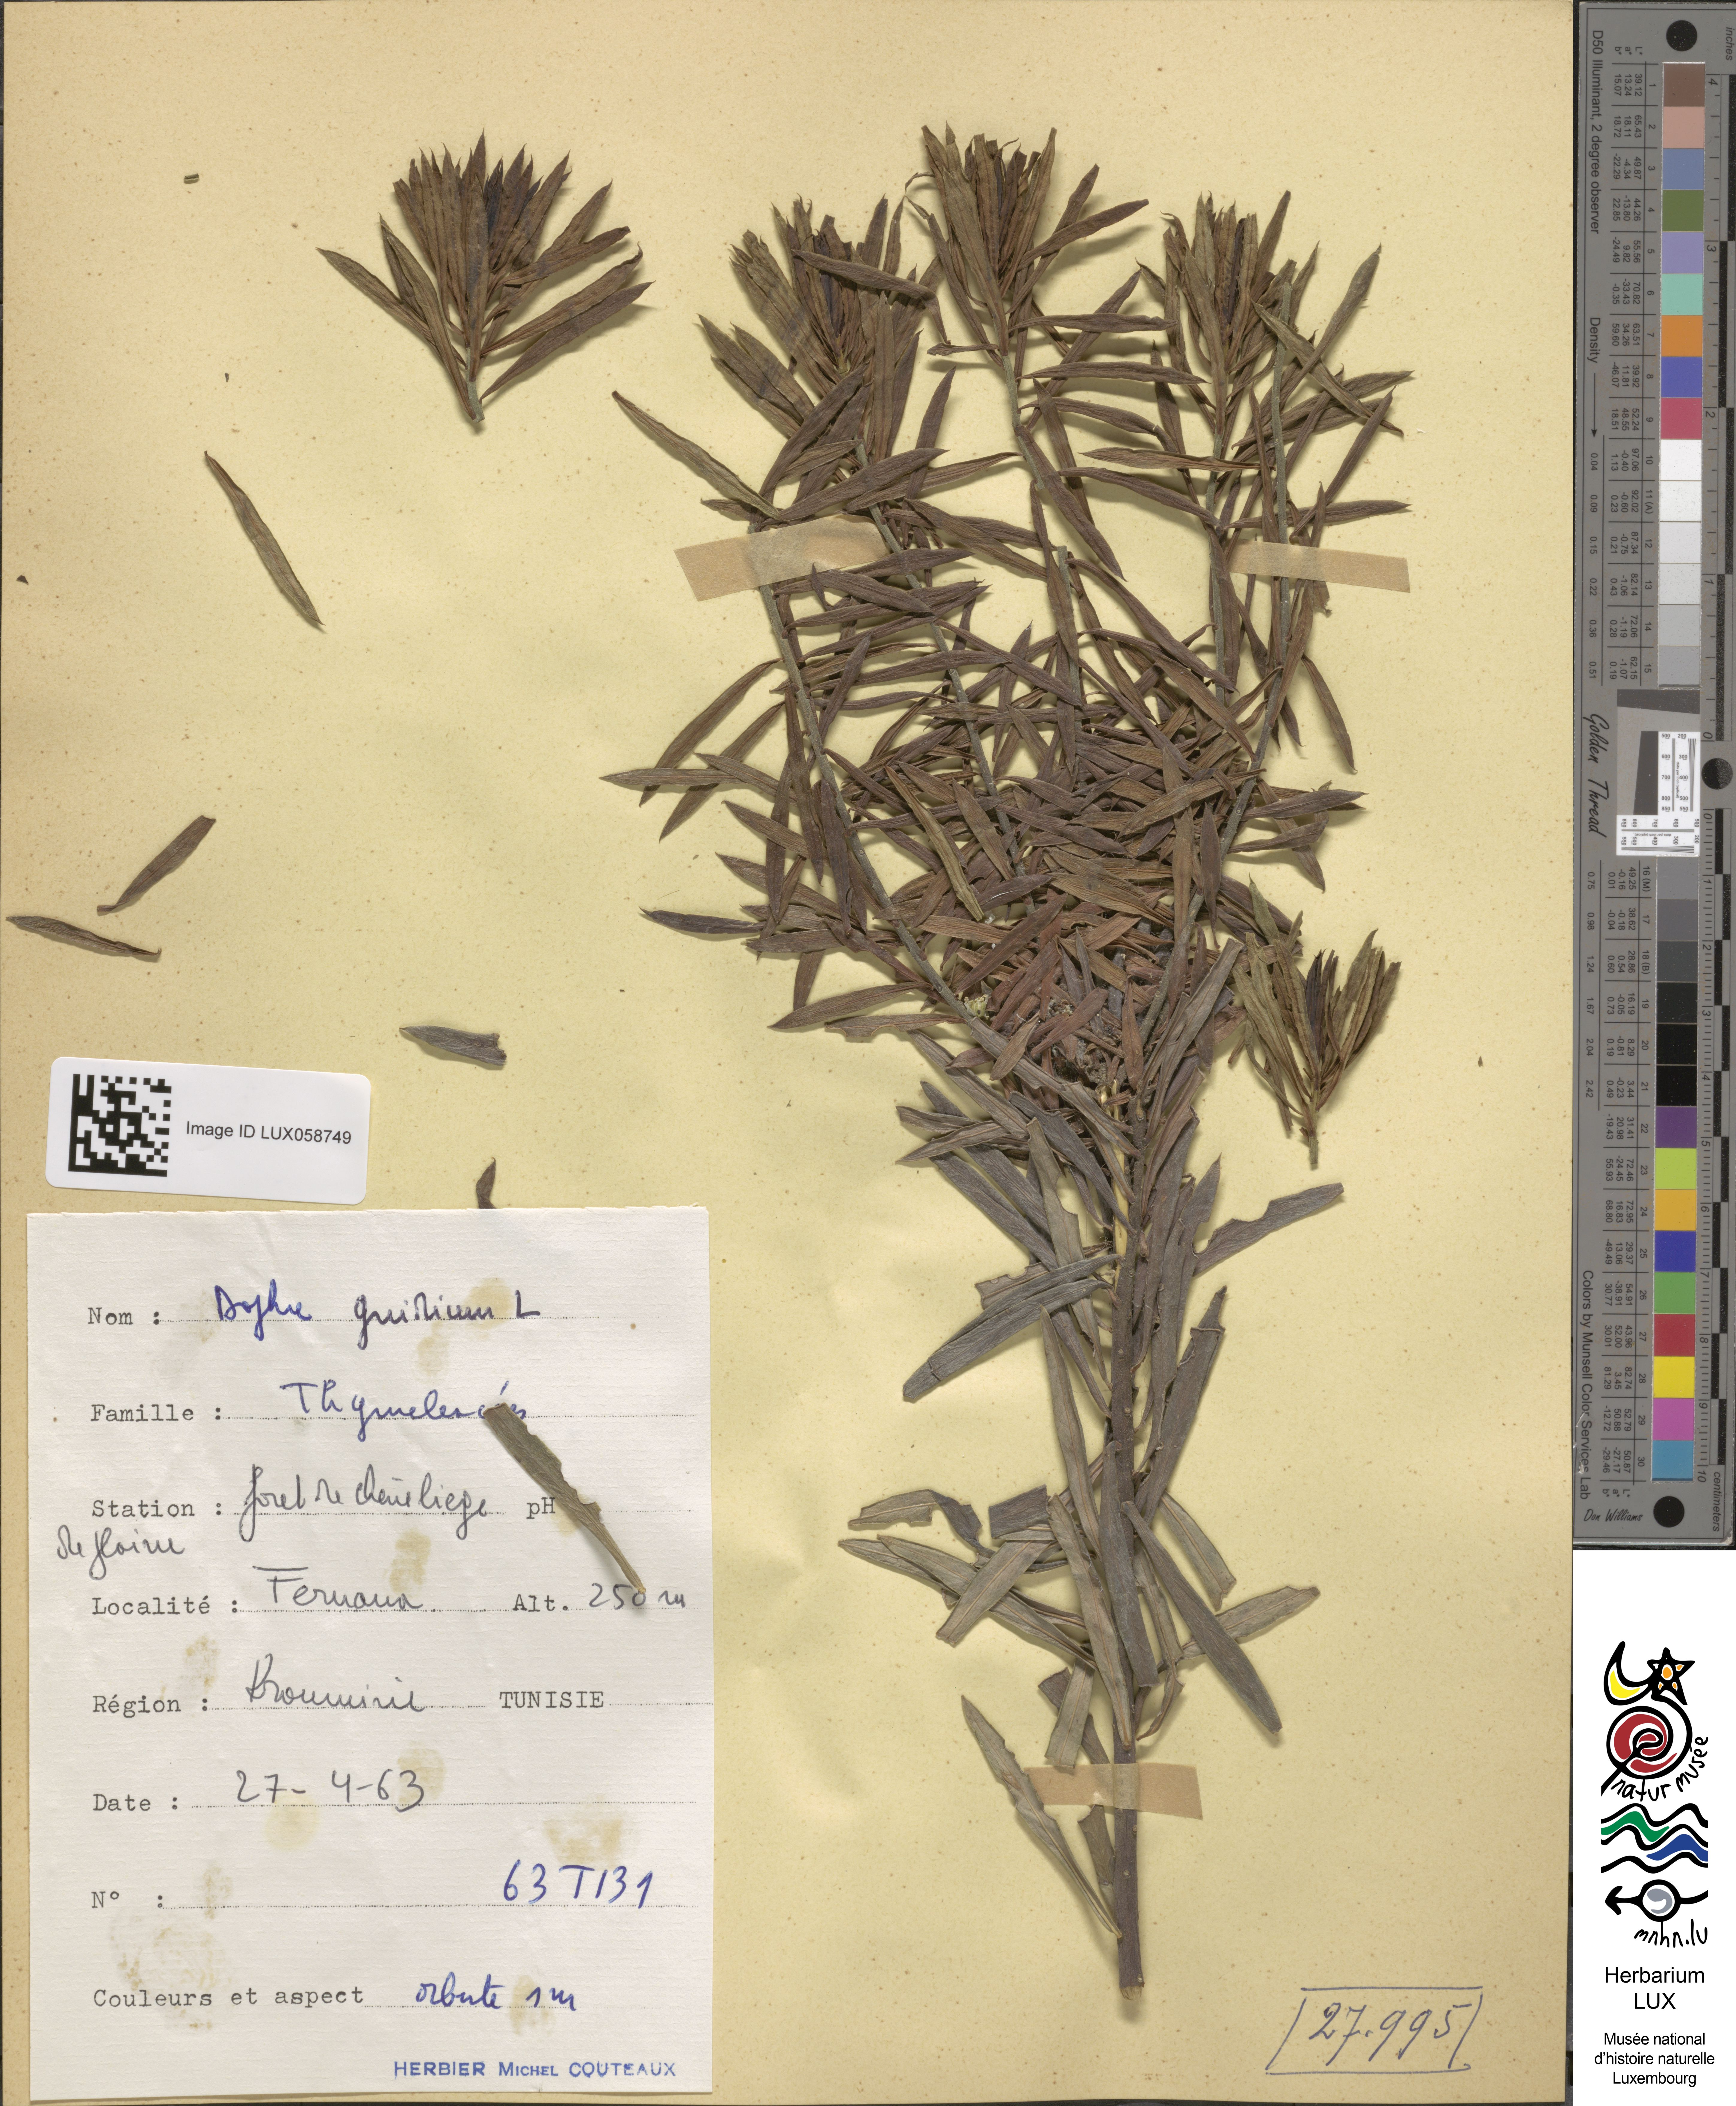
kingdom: Plantae
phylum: Tracheophyta
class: Magnoliopsida
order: Malvales
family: Thymelaeaceae
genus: Daphne
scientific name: Daphne gnidium
